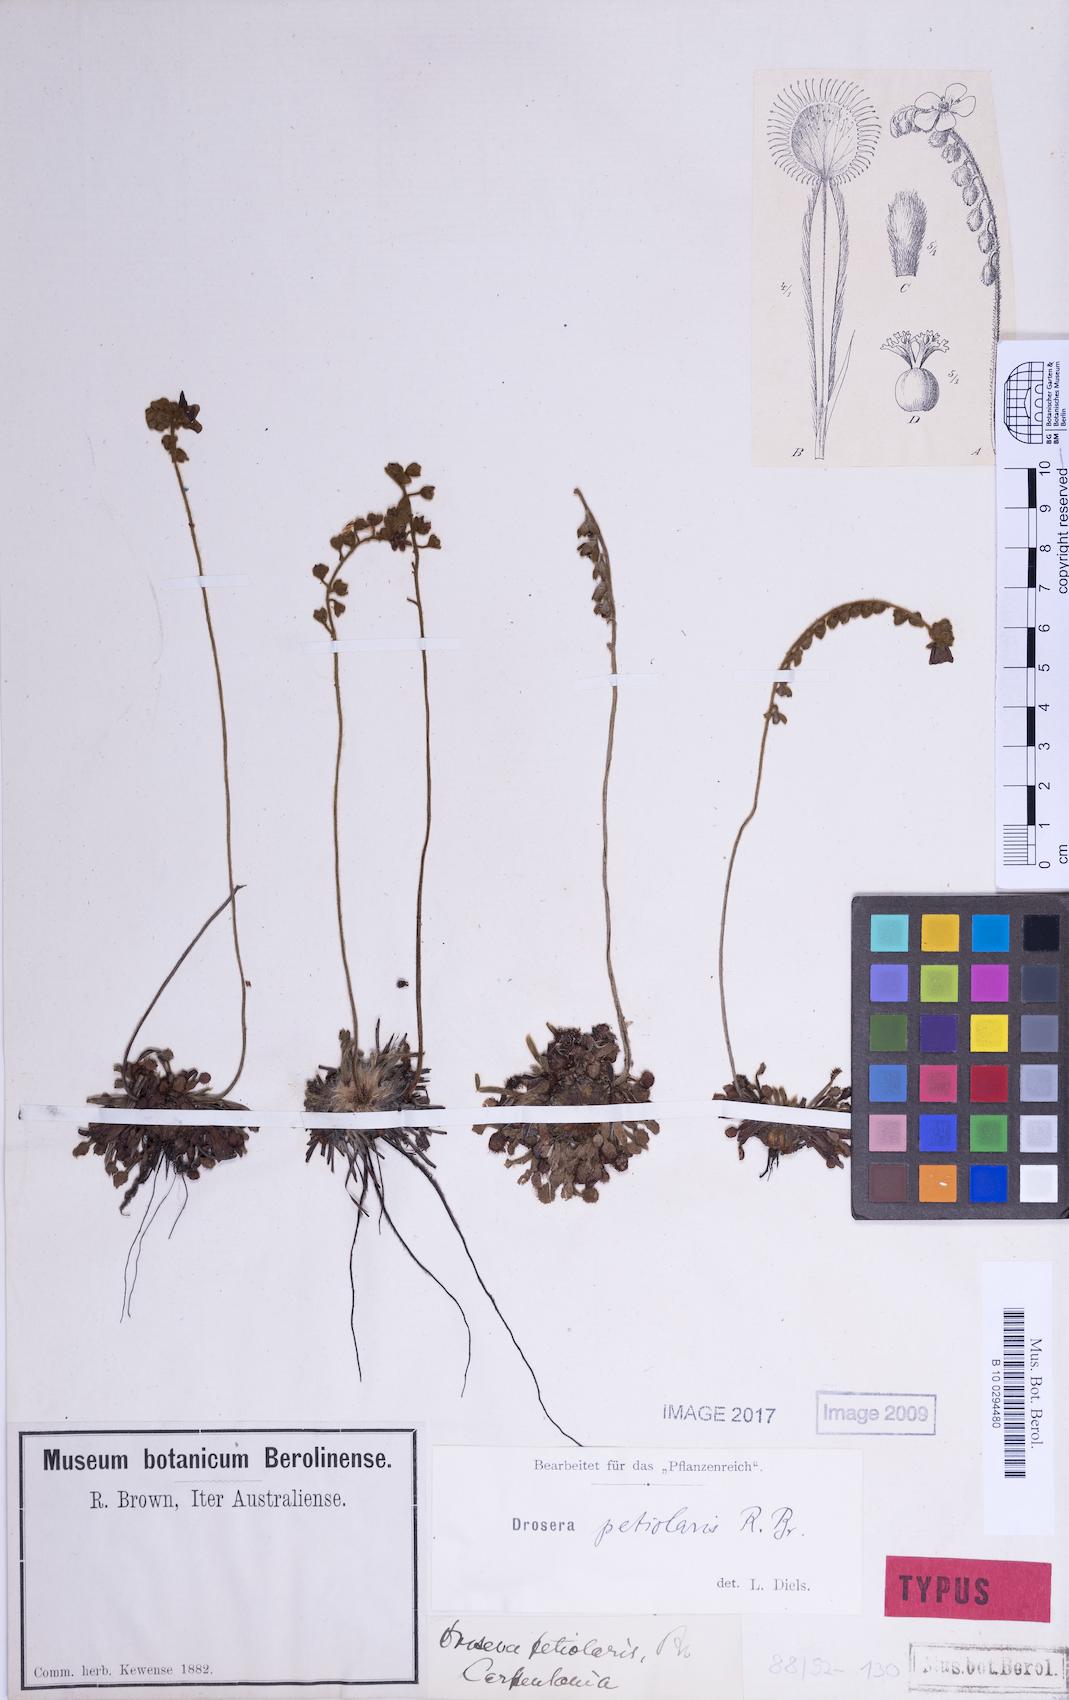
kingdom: Plantae
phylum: Tracheophyta
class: Magnoliopsida
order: Caryophyllales
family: Droseraceae
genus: Drosera
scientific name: Drosera petiolaris
